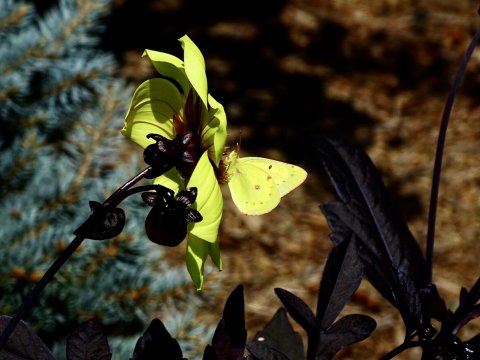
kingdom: Animalia
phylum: Arthropoda
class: Insecta
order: Lepidoptera
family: Pieridae
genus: Colias
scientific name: Colias philodice
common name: Clouded Sulphur
